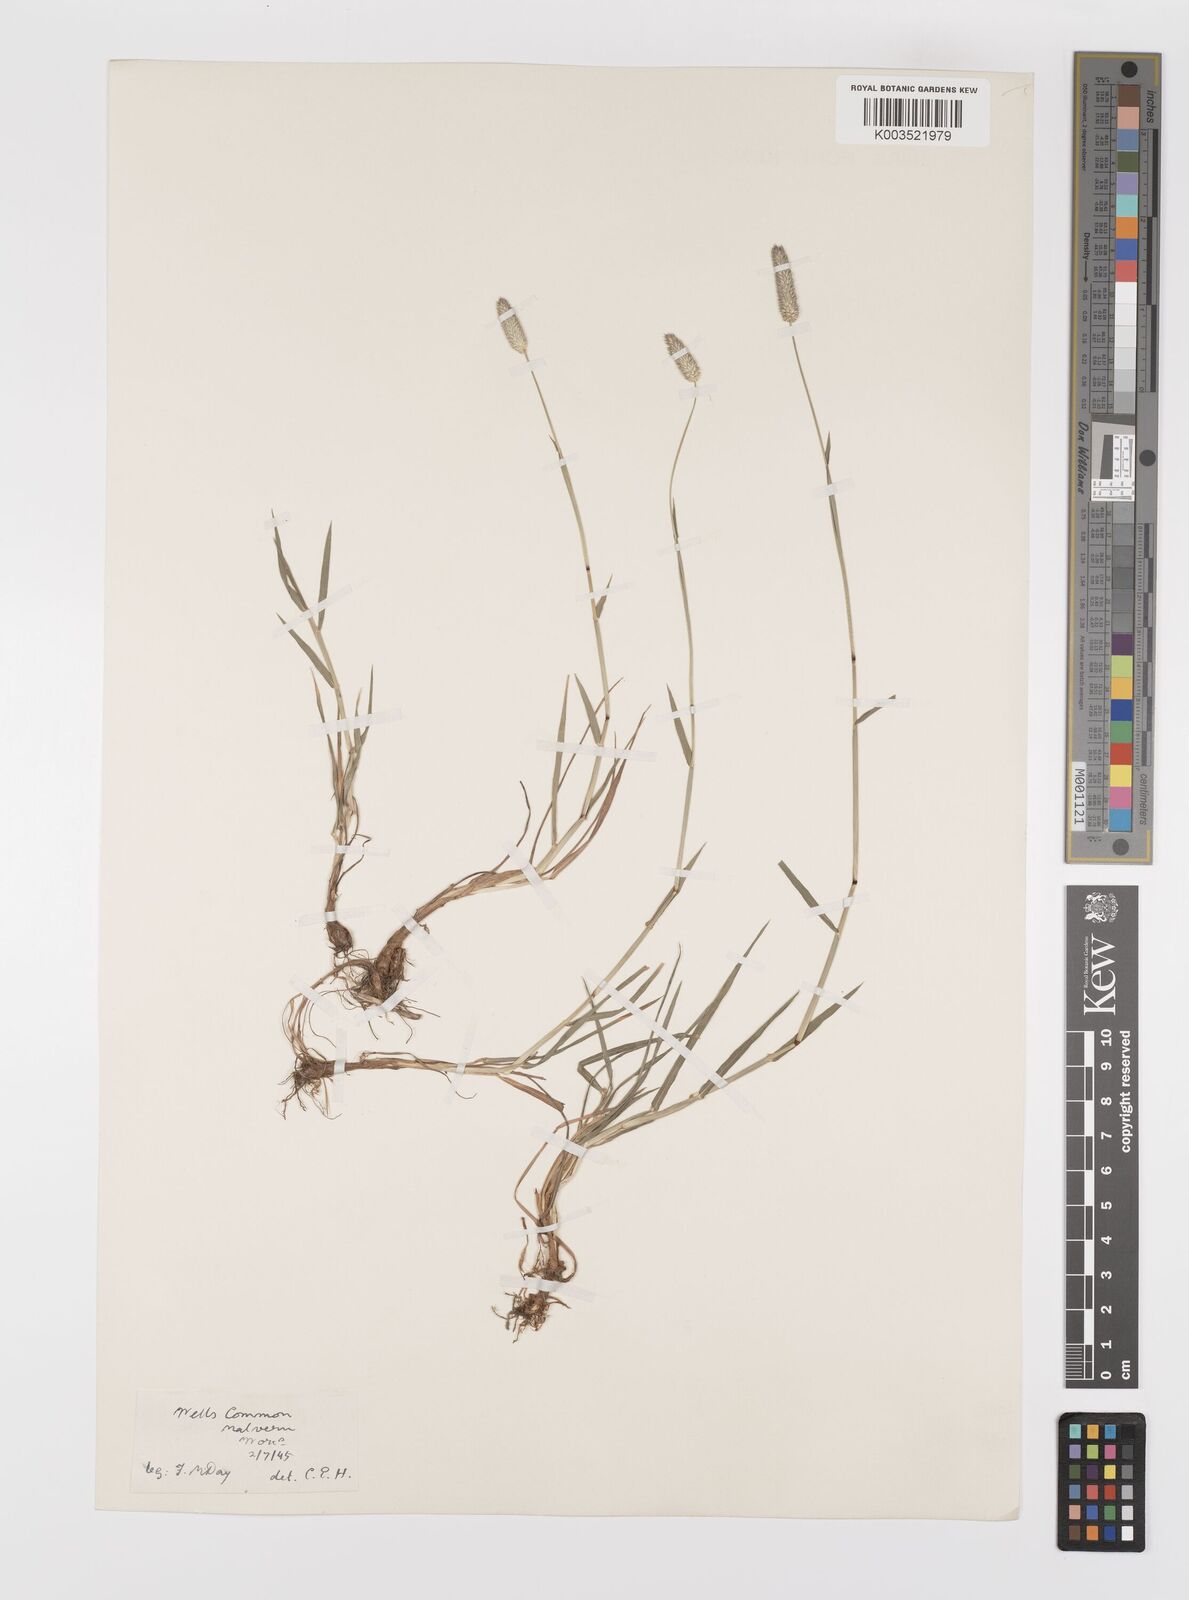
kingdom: Plantae
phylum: Tracheophyta
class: Liliopsida
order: Poales
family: Poaceae
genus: Phleum
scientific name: Phleum bertolonii
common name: Smaller cat's-tail
